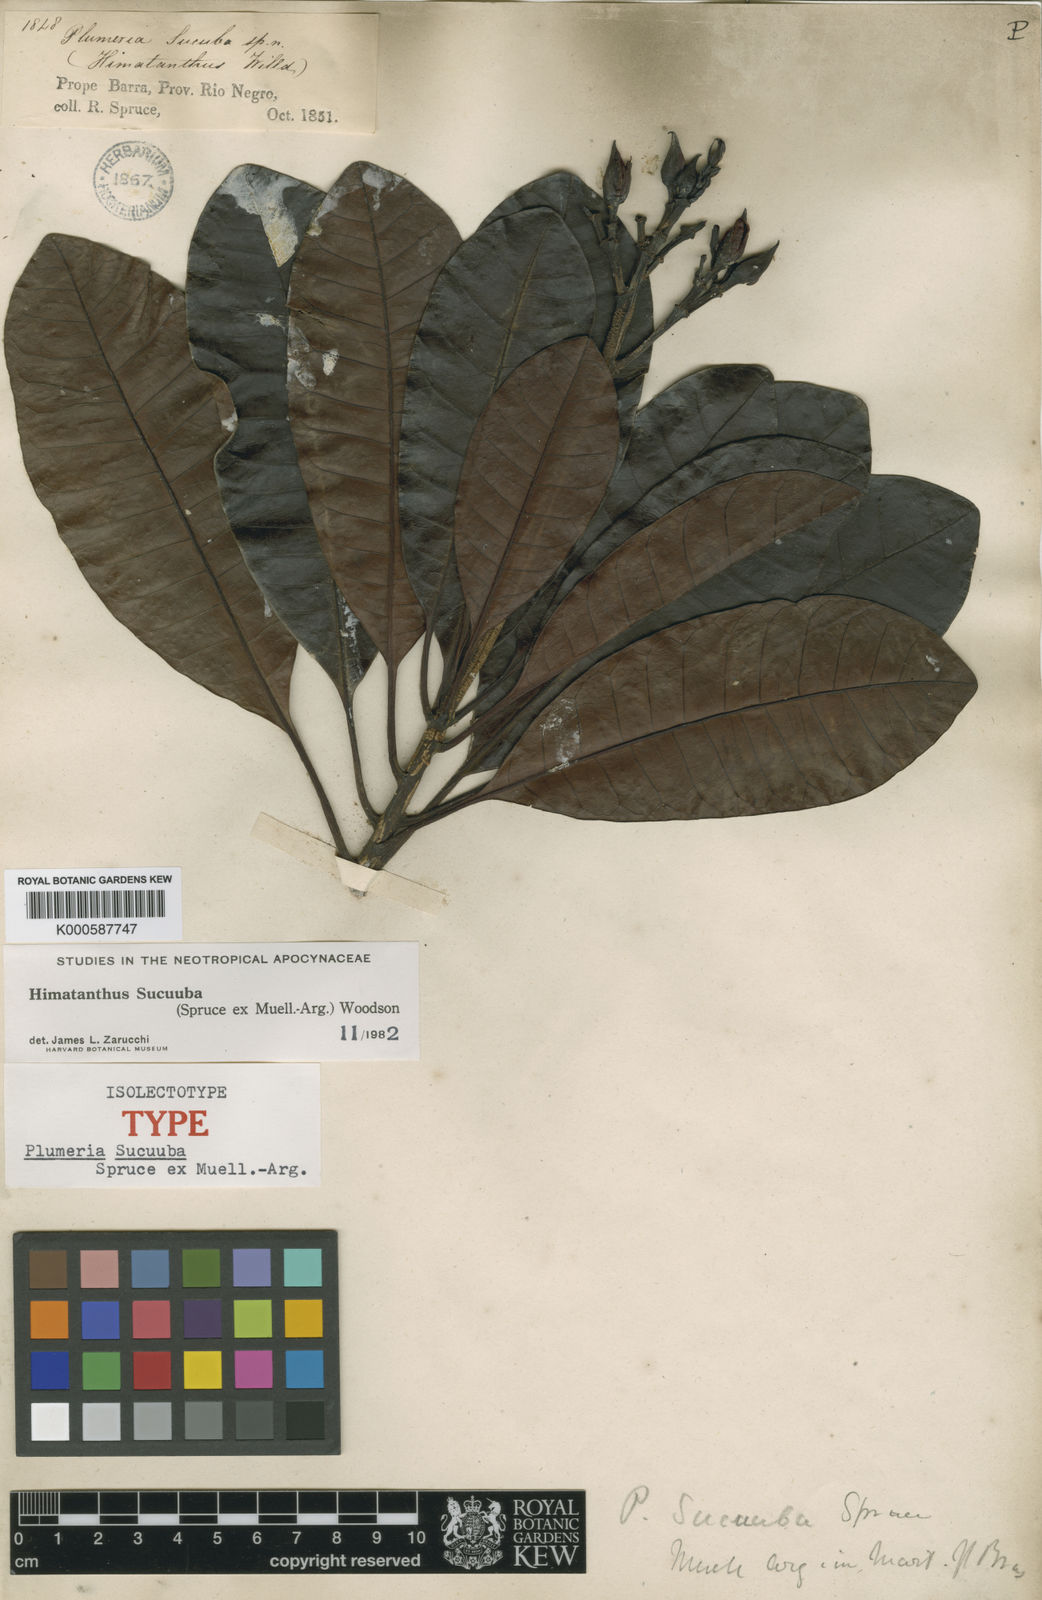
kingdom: Plantae
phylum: Tracheophyta
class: Magnoliopsida
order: Gentianales
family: Apocynaceae
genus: Himatanthus
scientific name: Himatanthus
